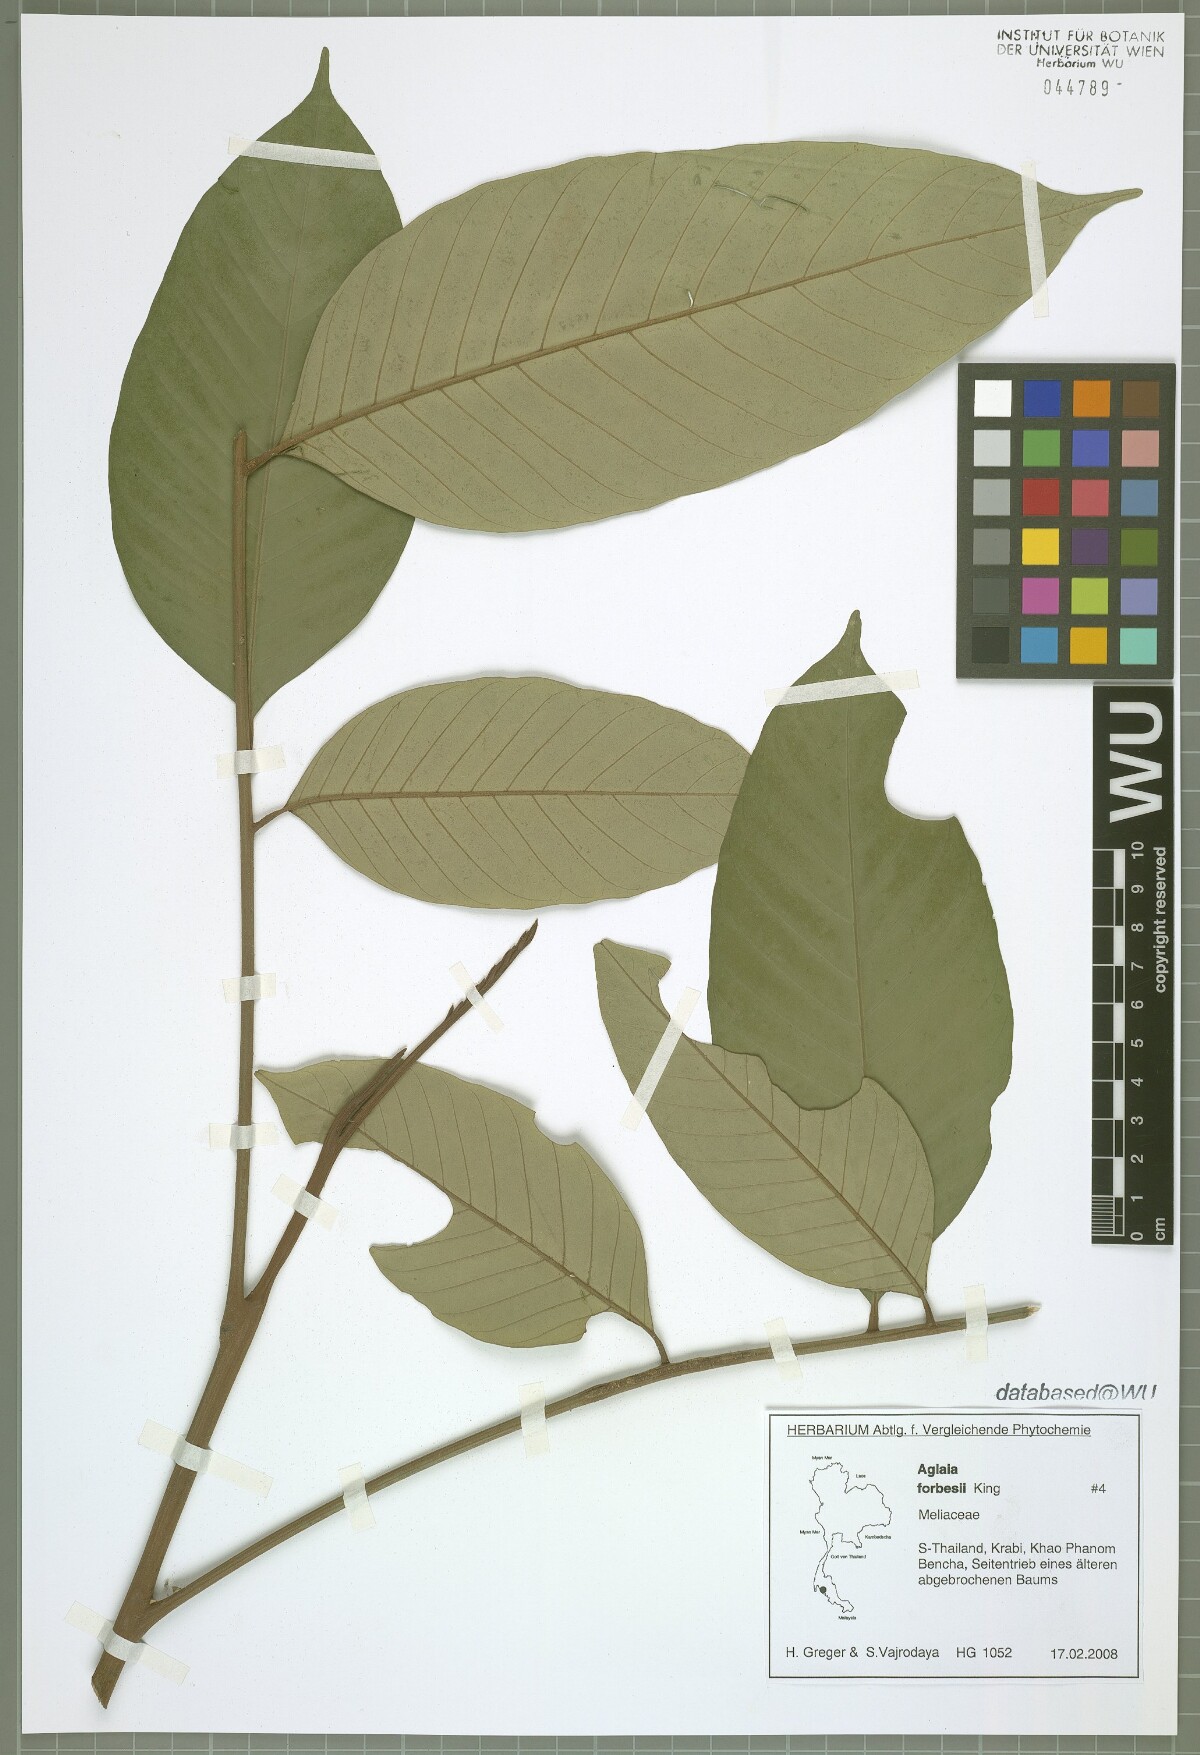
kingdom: Plantae
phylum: Tracheophyta
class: Magnoliopsida
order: Sapindales
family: Meliaceae
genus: Aglaia
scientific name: Aglaia forbesii
